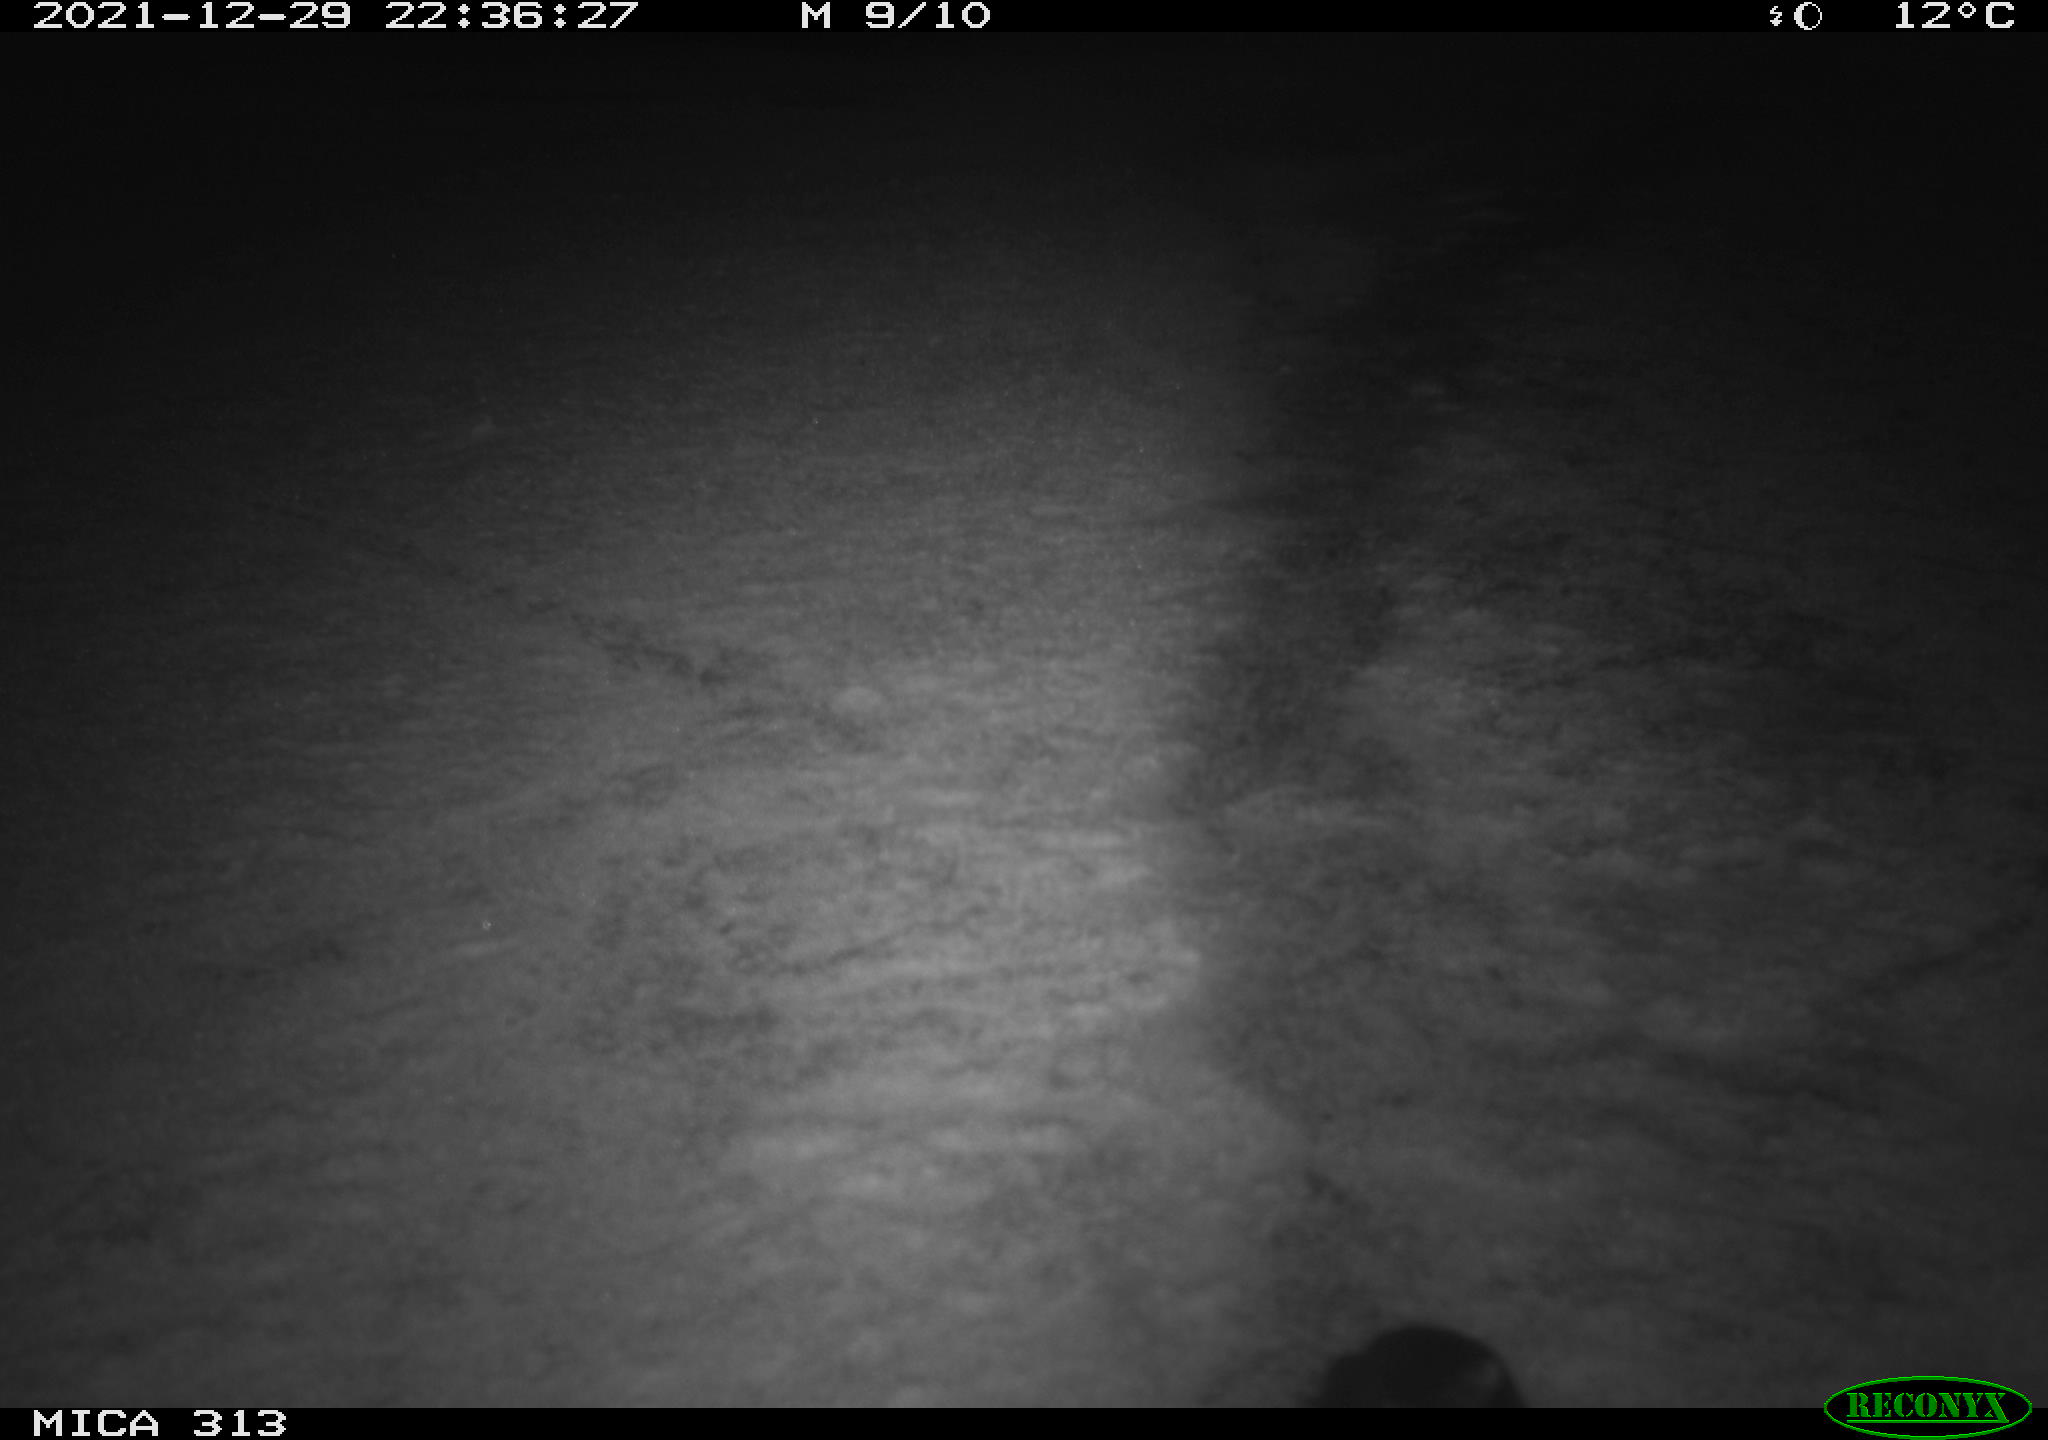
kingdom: Animalia
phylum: Chordata
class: Aves
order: Gruiformes
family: Rallidae
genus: Fulica
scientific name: Fulica atra
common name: Eurasian coot
